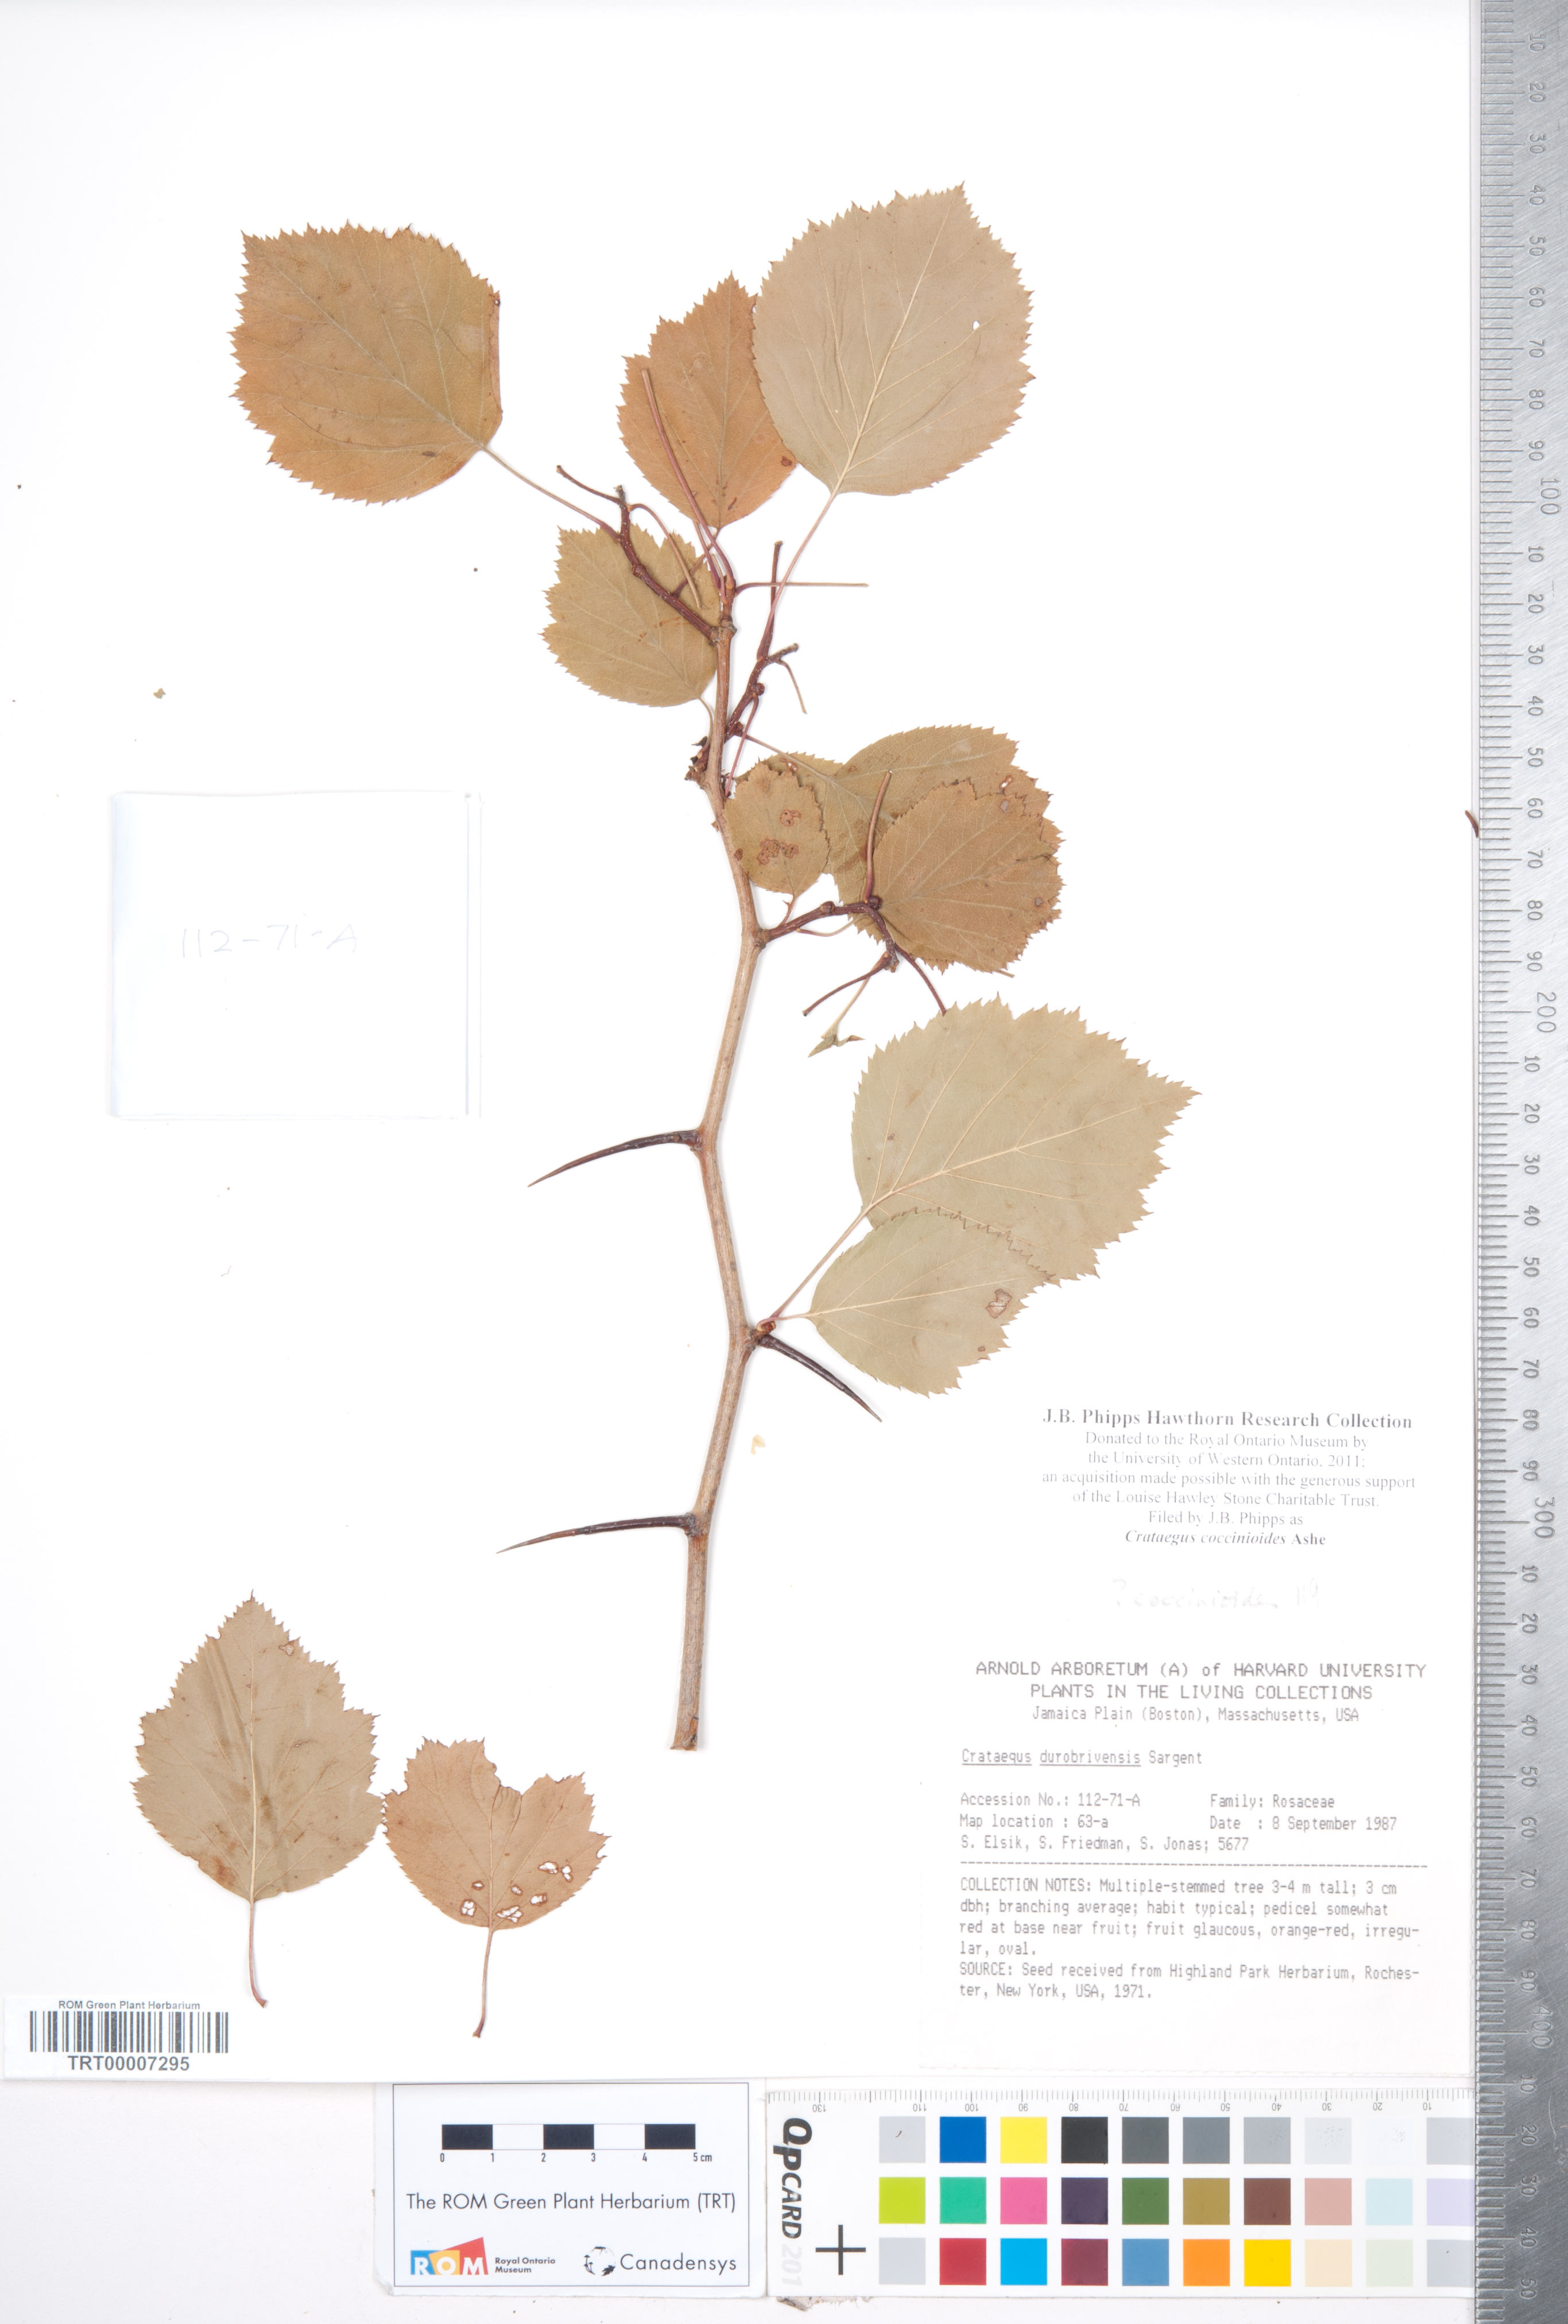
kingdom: Plantae
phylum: Tracheophyta
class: Magnoliopsida
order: Rosales
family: Rosaceae
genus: Crataegus
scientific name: Crataegus coccinioides
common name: Large-flowered cockspurthorn
